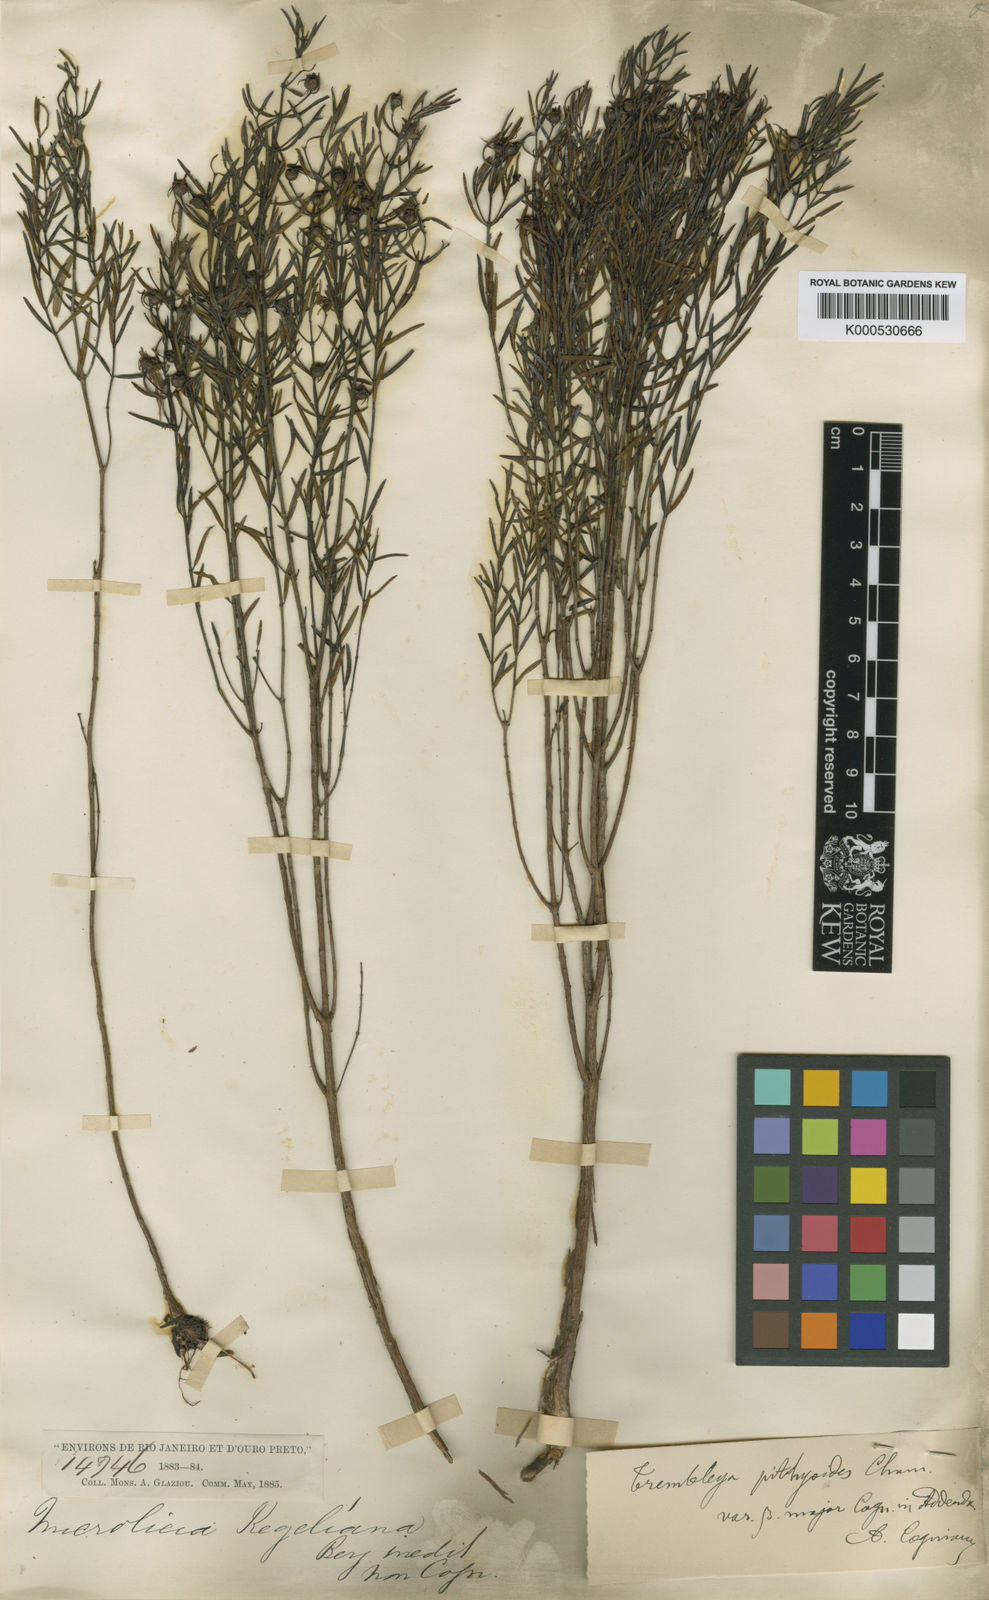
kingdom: Plantae
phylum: Tracheophyta
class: Magnoliopsida
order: Myrtales
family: Melastomataceae
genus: Microlicia
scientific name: Microlicia pithyoides
